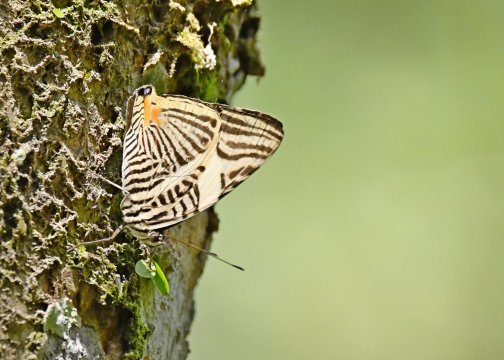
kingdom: Animalia
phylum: Arthropoda
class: Insecta
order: Lepidoptera
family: Nymphalidae
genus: Colobura
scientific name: Colobura annulata
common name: New Beauty
